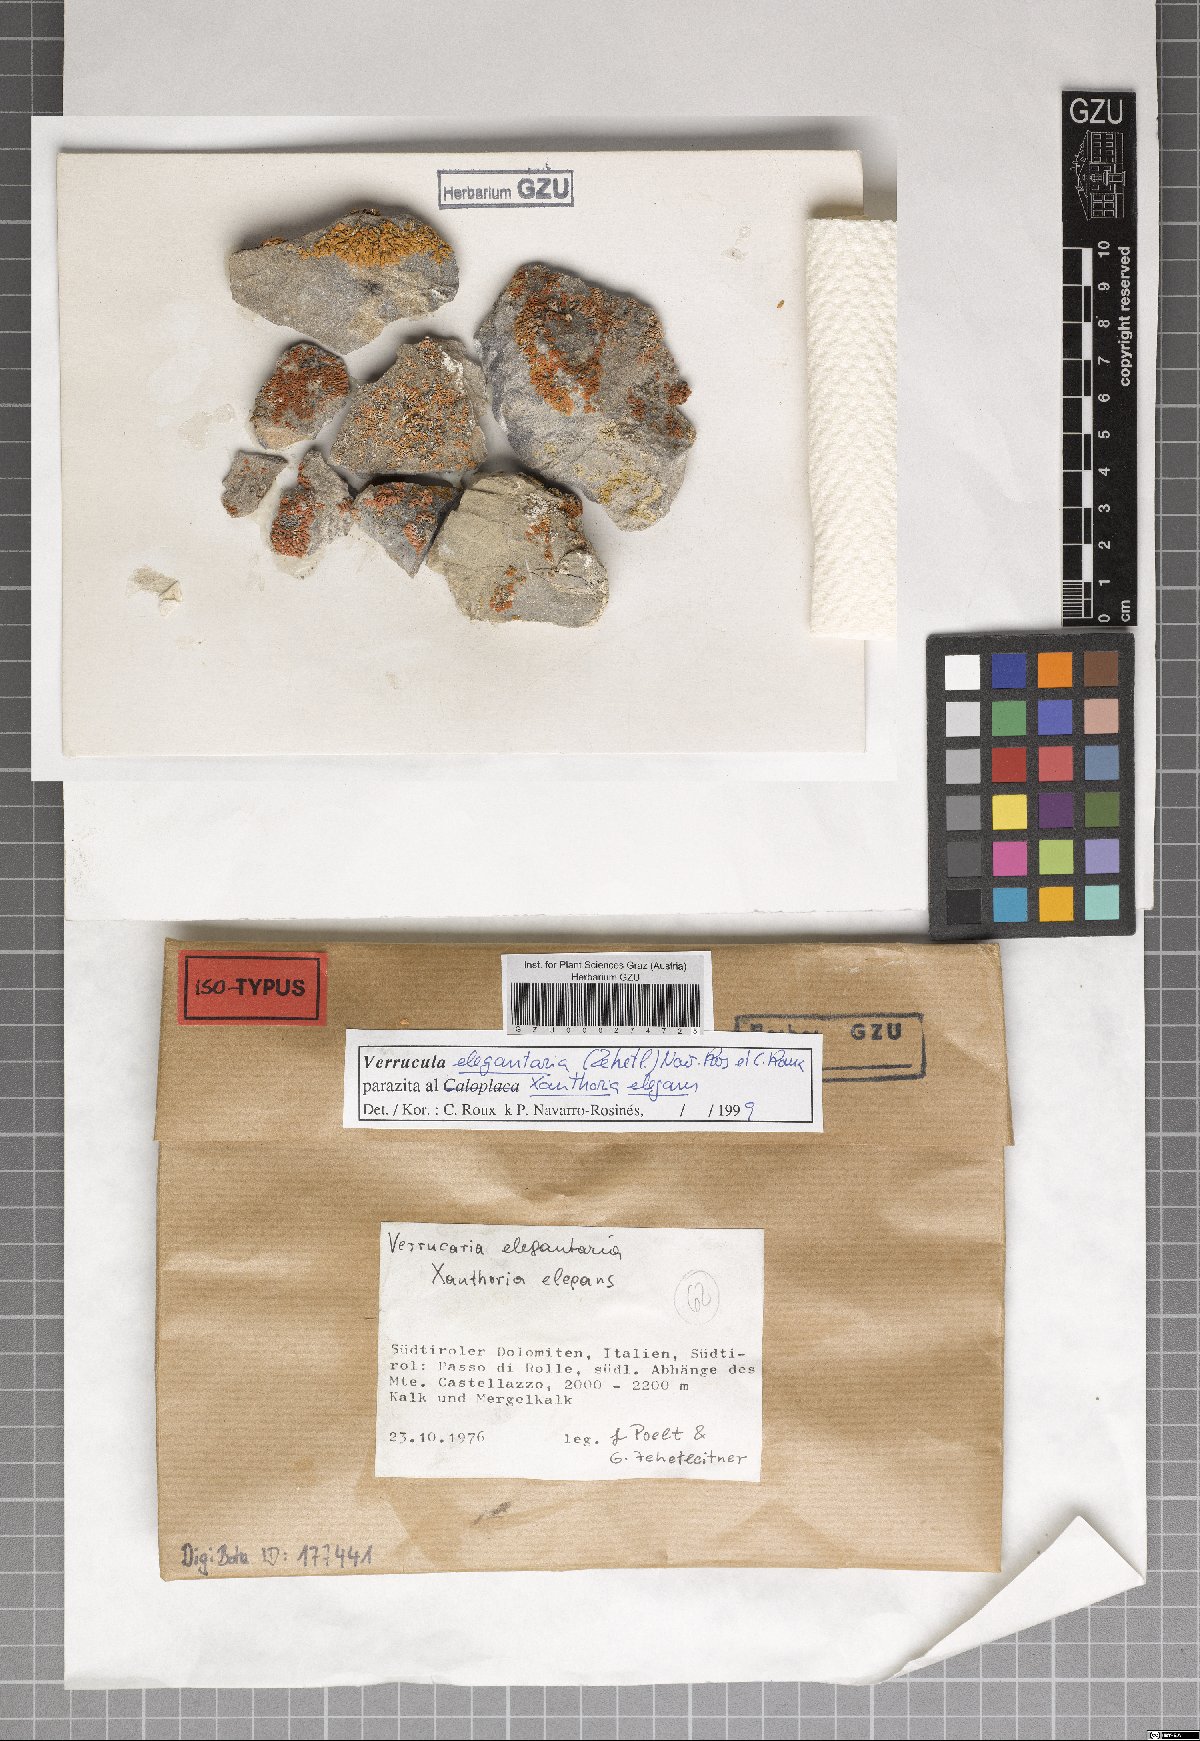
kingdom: Fungi
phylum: Ascomycota
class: Eurotiomycetes
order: Verrucariales
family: Verrucariaceae
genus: Verrucula
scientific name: Verrucula elegantaria
